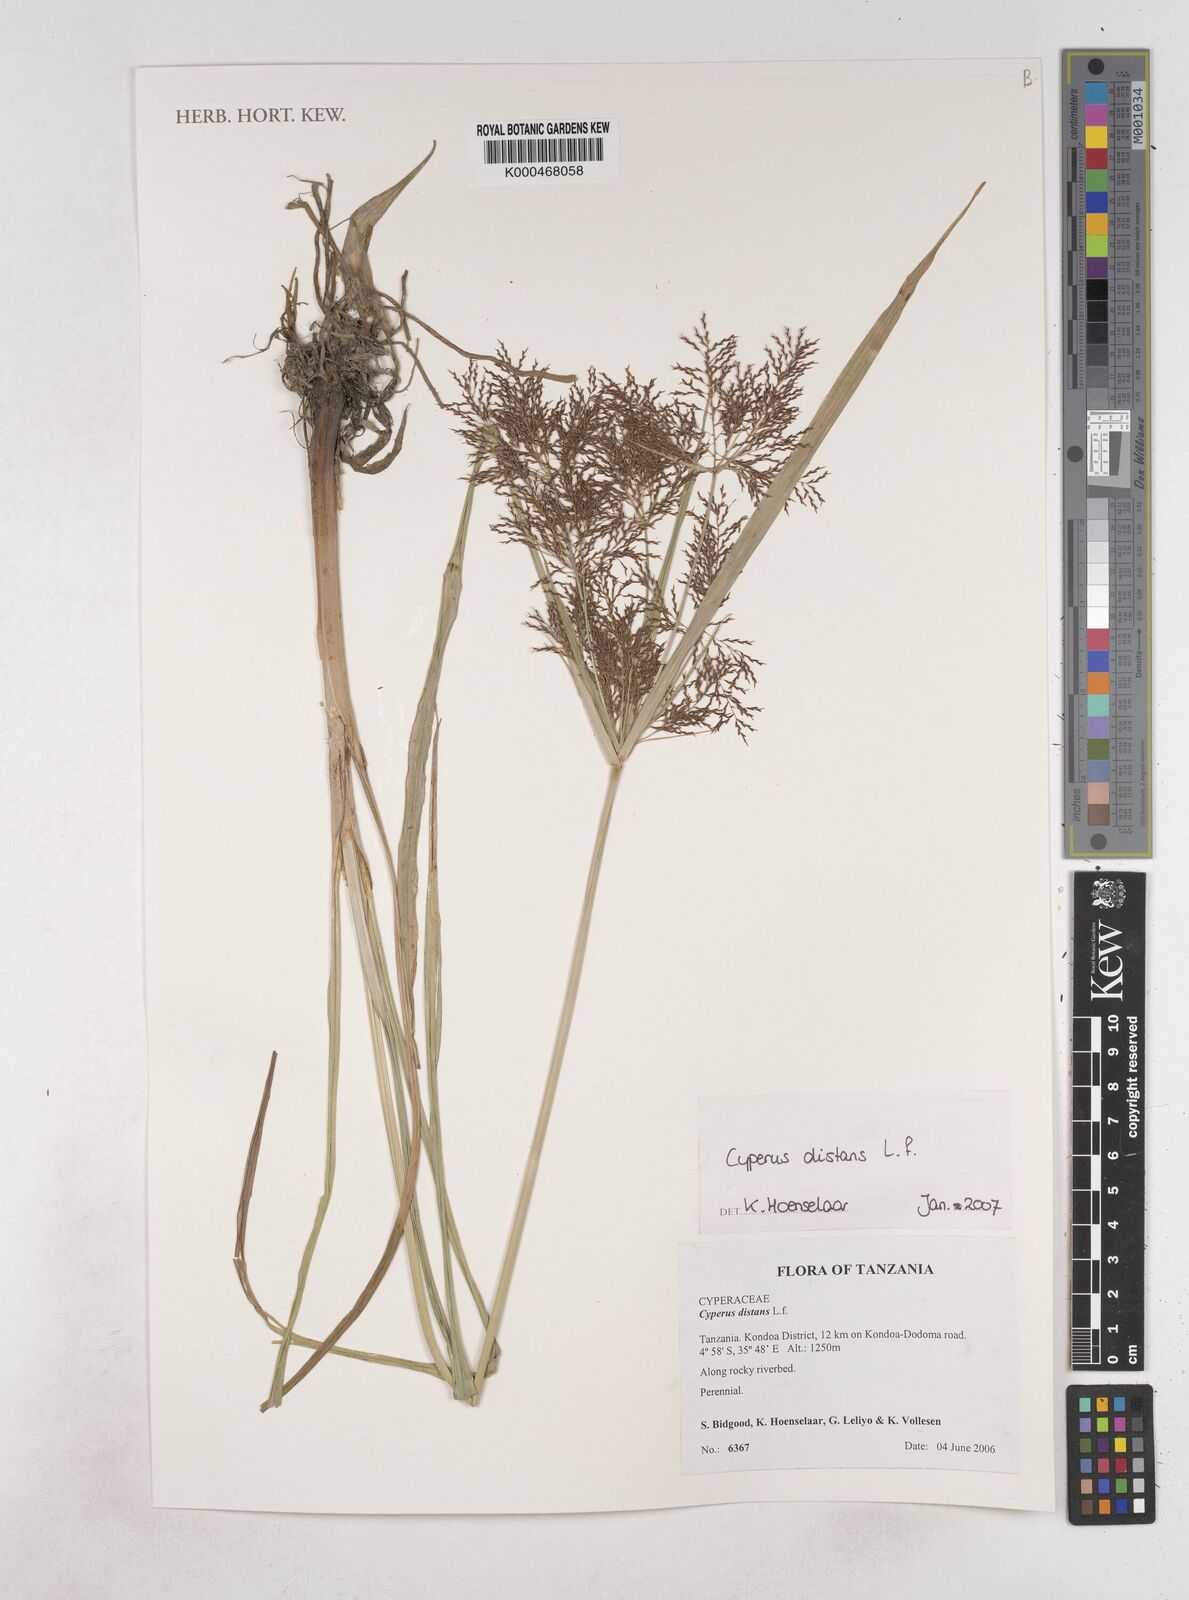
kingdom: Plantae
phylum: Tracheophyta
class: Liliopsida
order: Poales
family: Cyperaceae
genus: Cyperus
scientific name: Cyperus distans
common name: Slender cyperus
